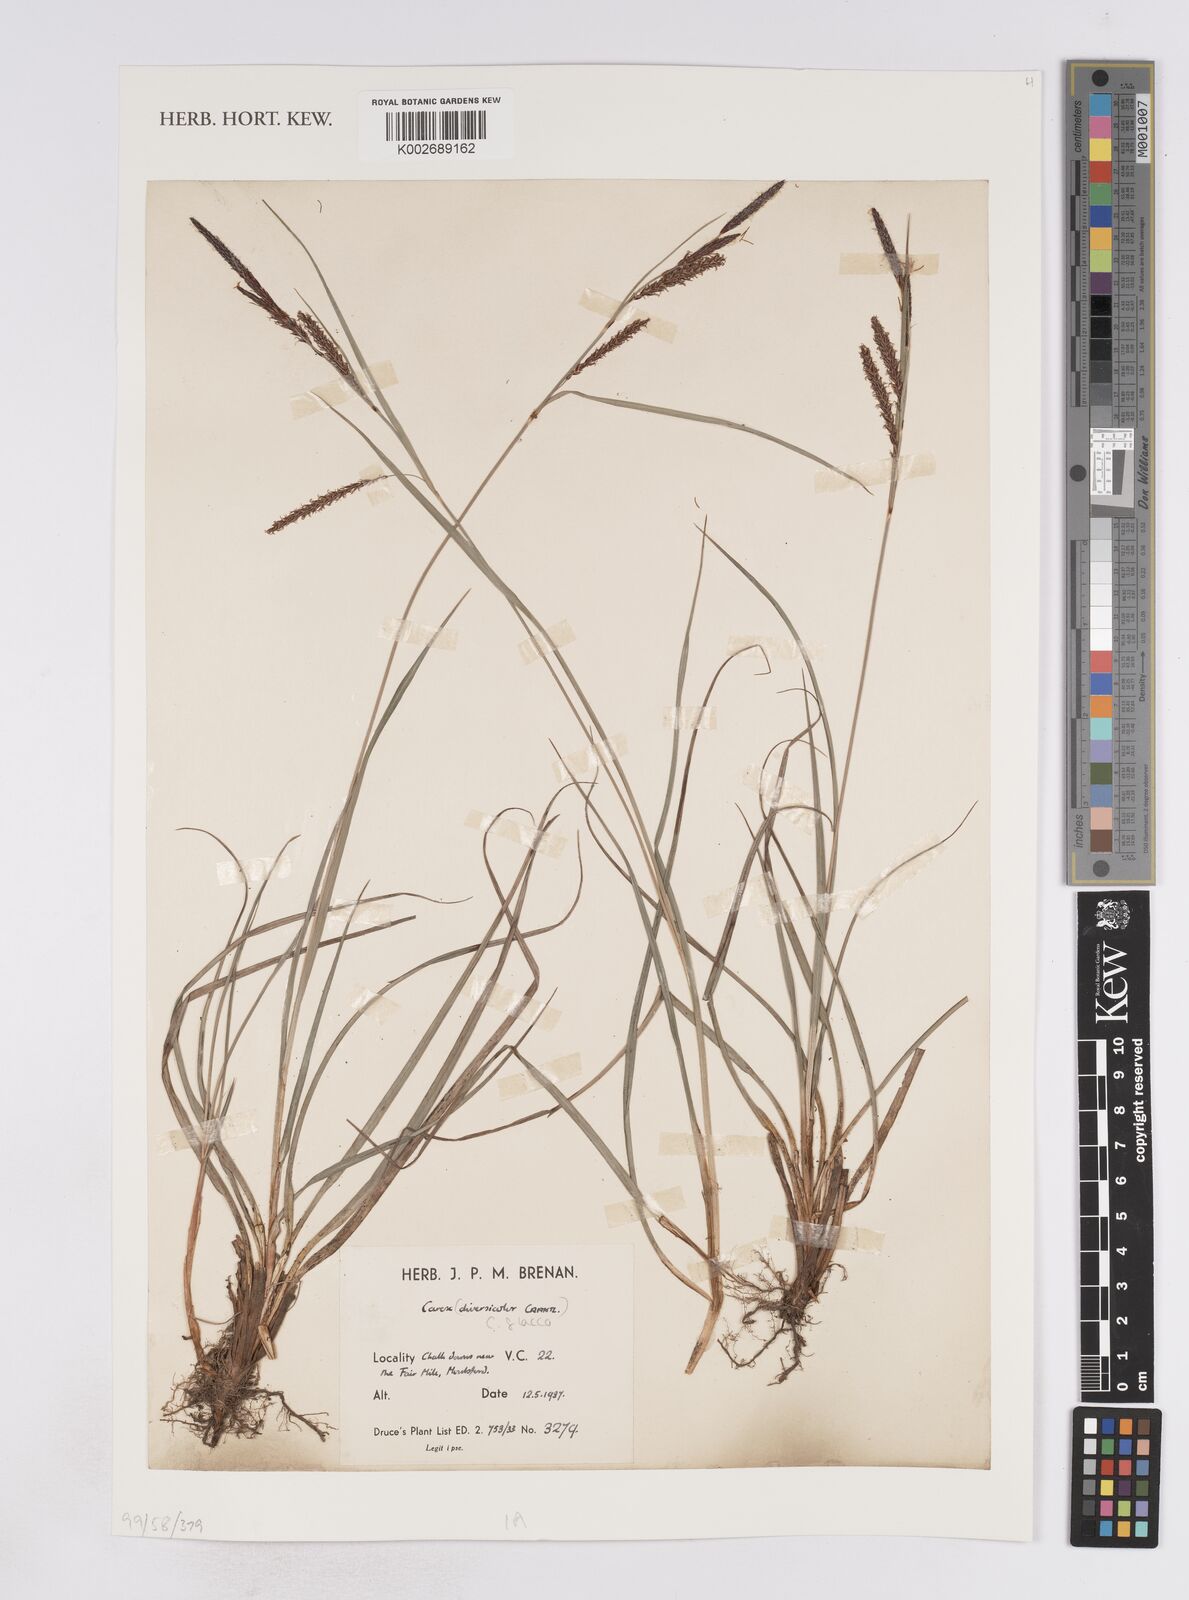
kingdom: Plantae
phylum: Tracheophyta
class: Liliopsida
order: Poales
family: Cyperaceae
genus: Carex
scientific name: Carex flacca
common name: Glaucous sedge
